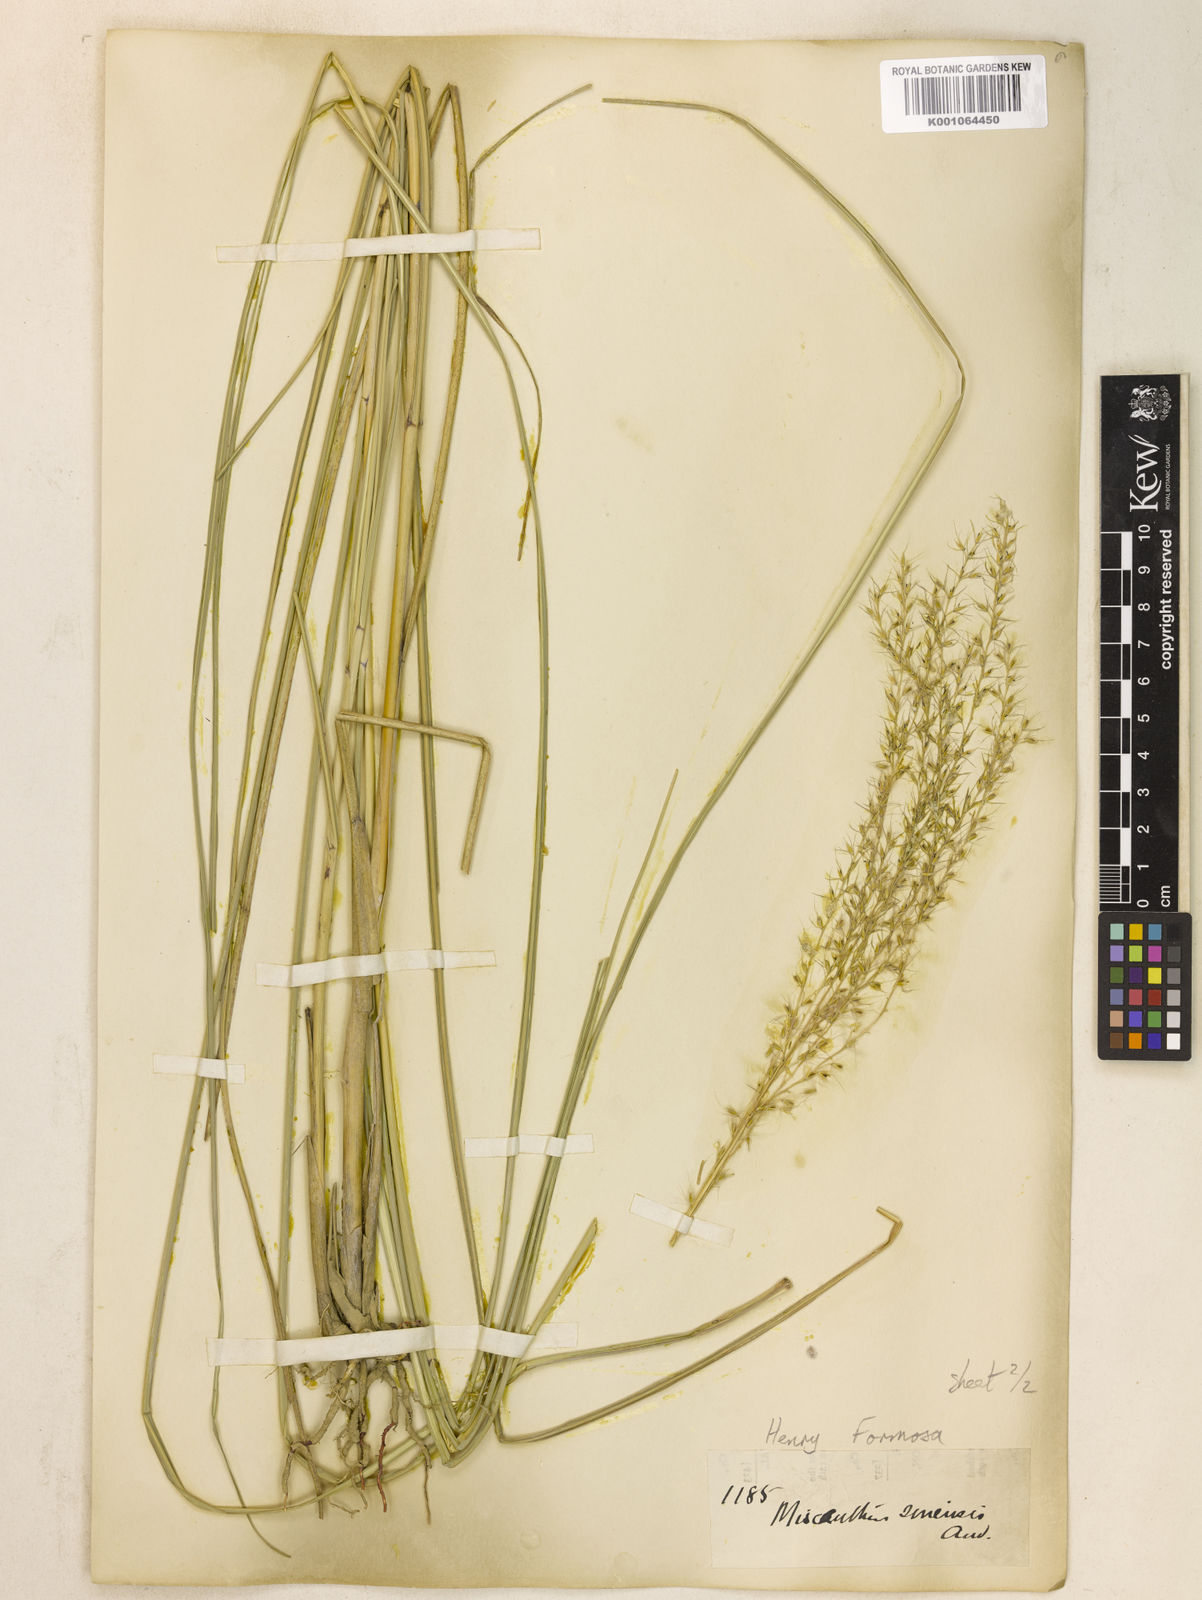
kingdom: Plantae
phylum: Tracheophyta
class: Liliopsida
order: Poales
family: Poaceae
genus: Miscanthus
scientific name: Miscanthus sinensis
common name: Chinese silvergrass
